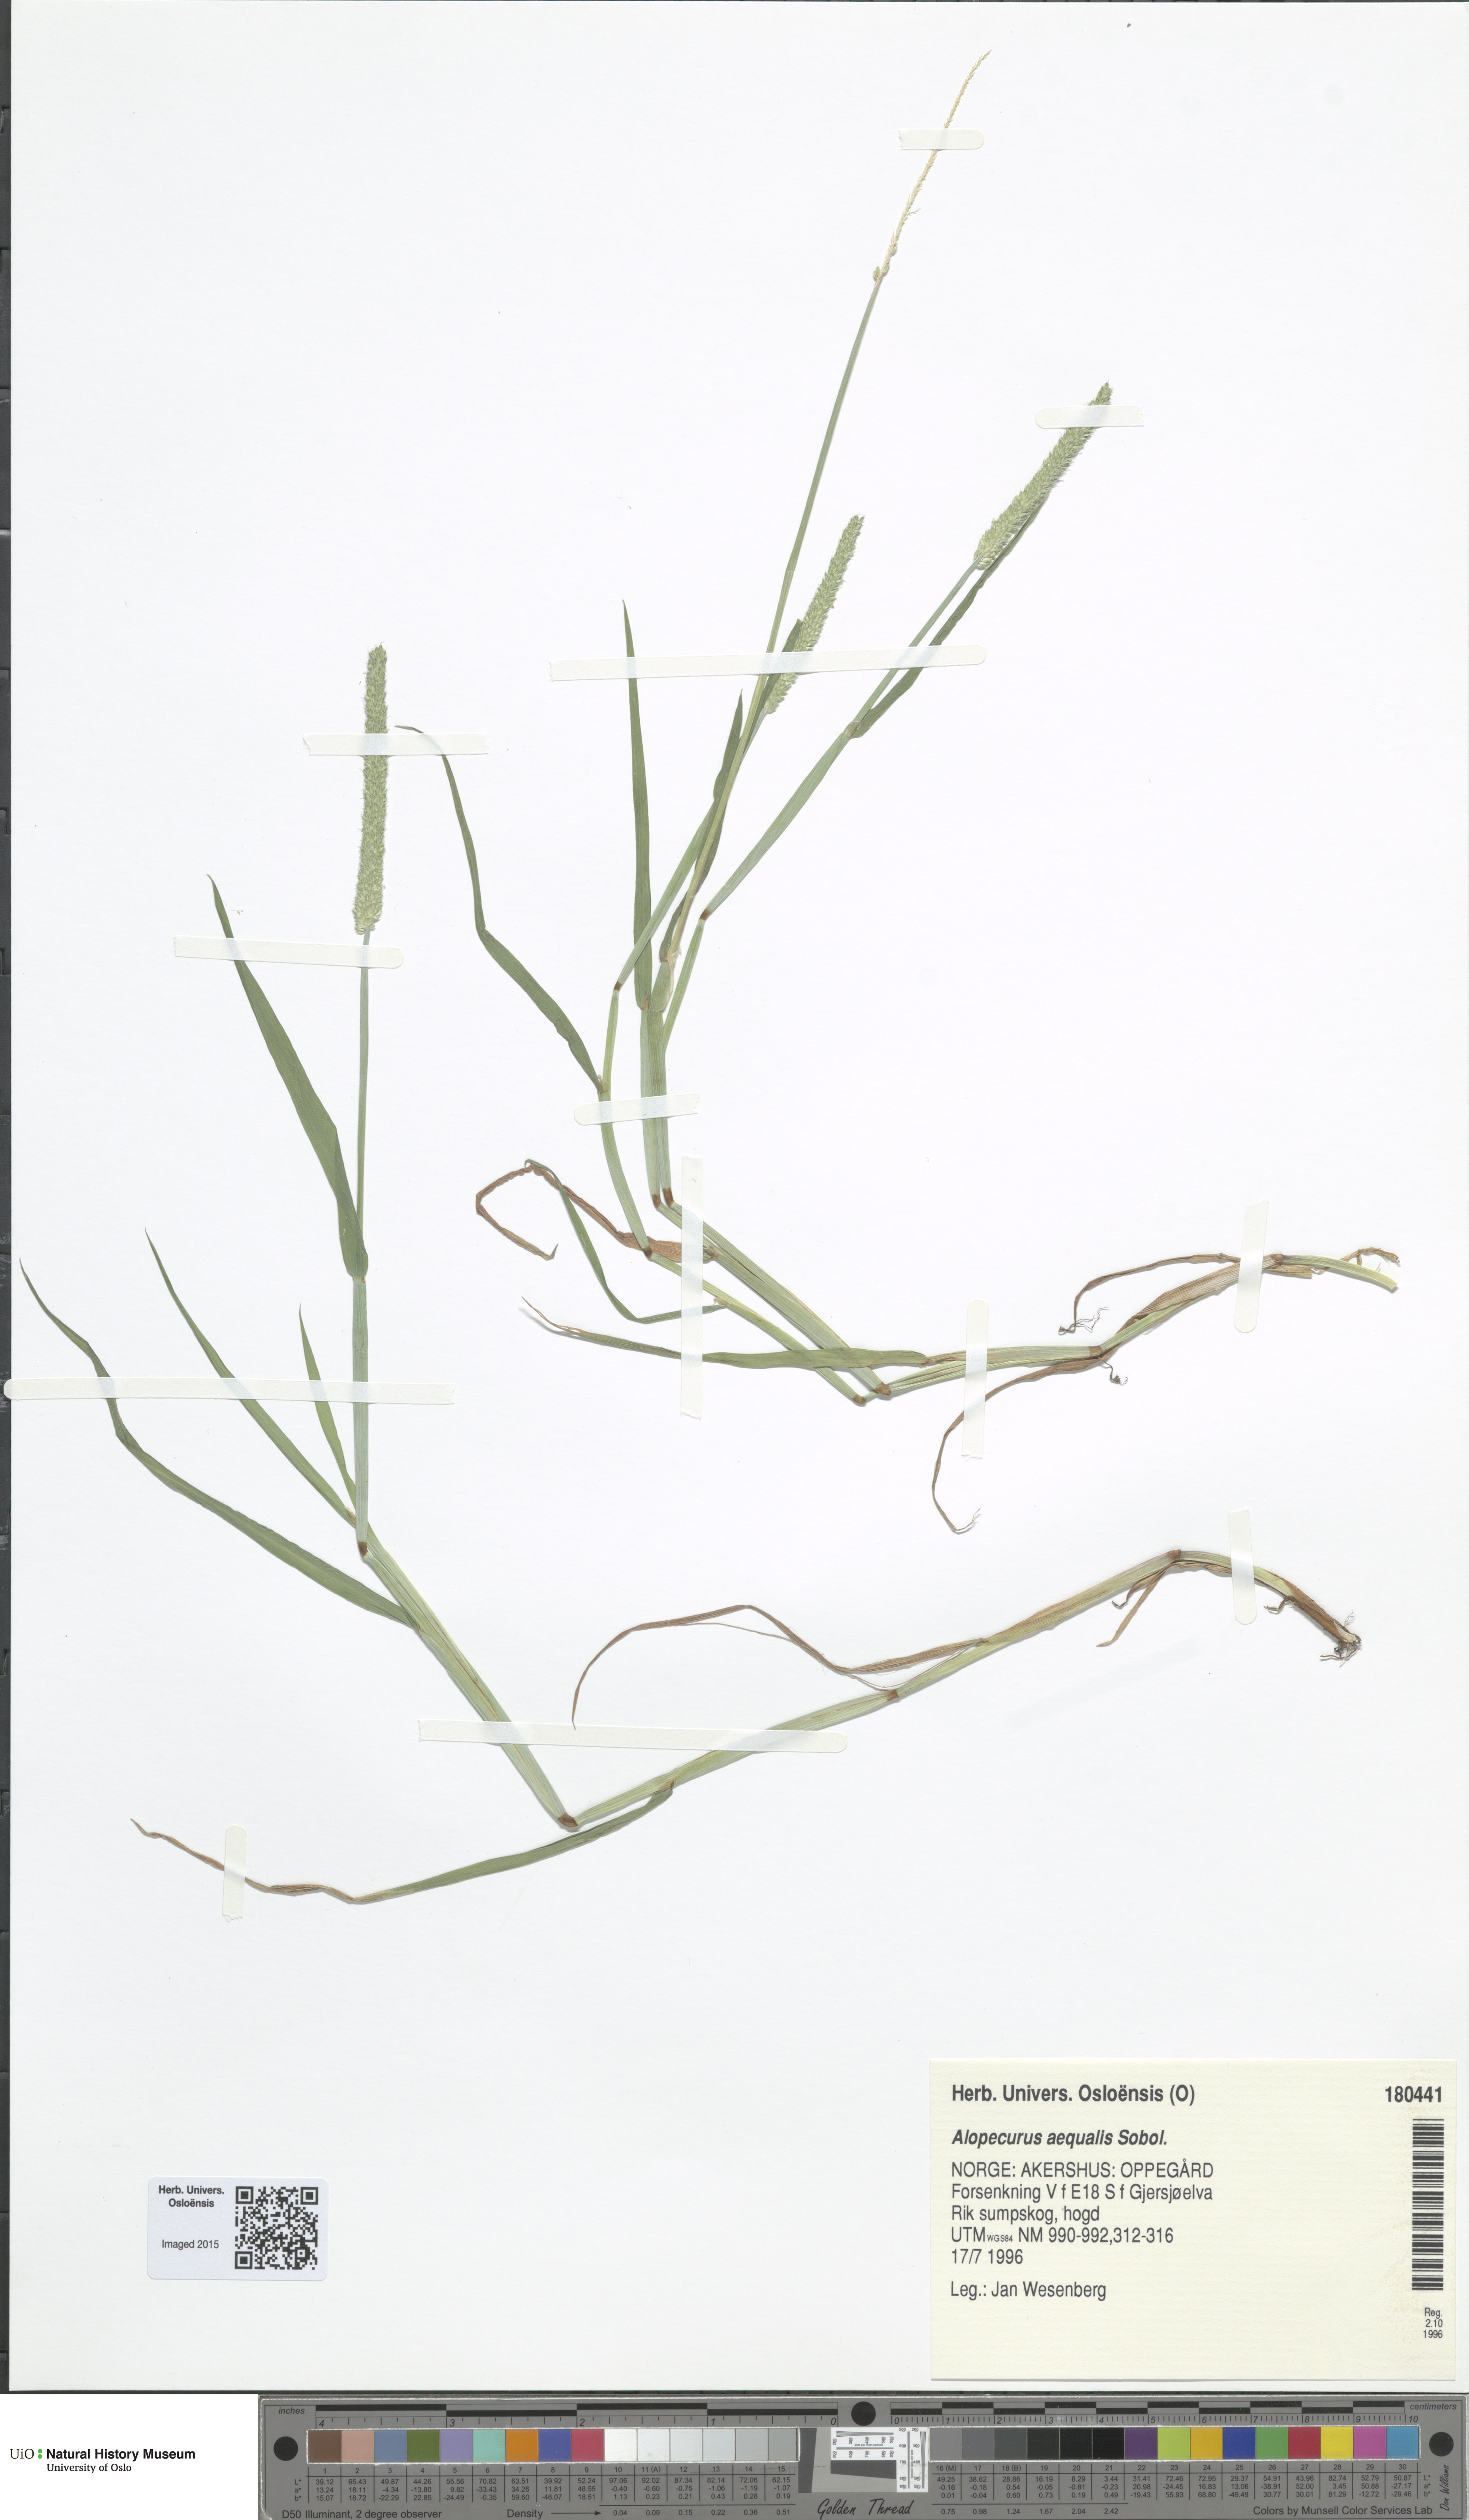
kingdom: Plantae
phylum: Tracheophyta
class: Liliopsida
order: Poales
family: Poaceae
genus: Alopecurus
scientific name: Alopecurus aequalis
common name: Orange foxtail
